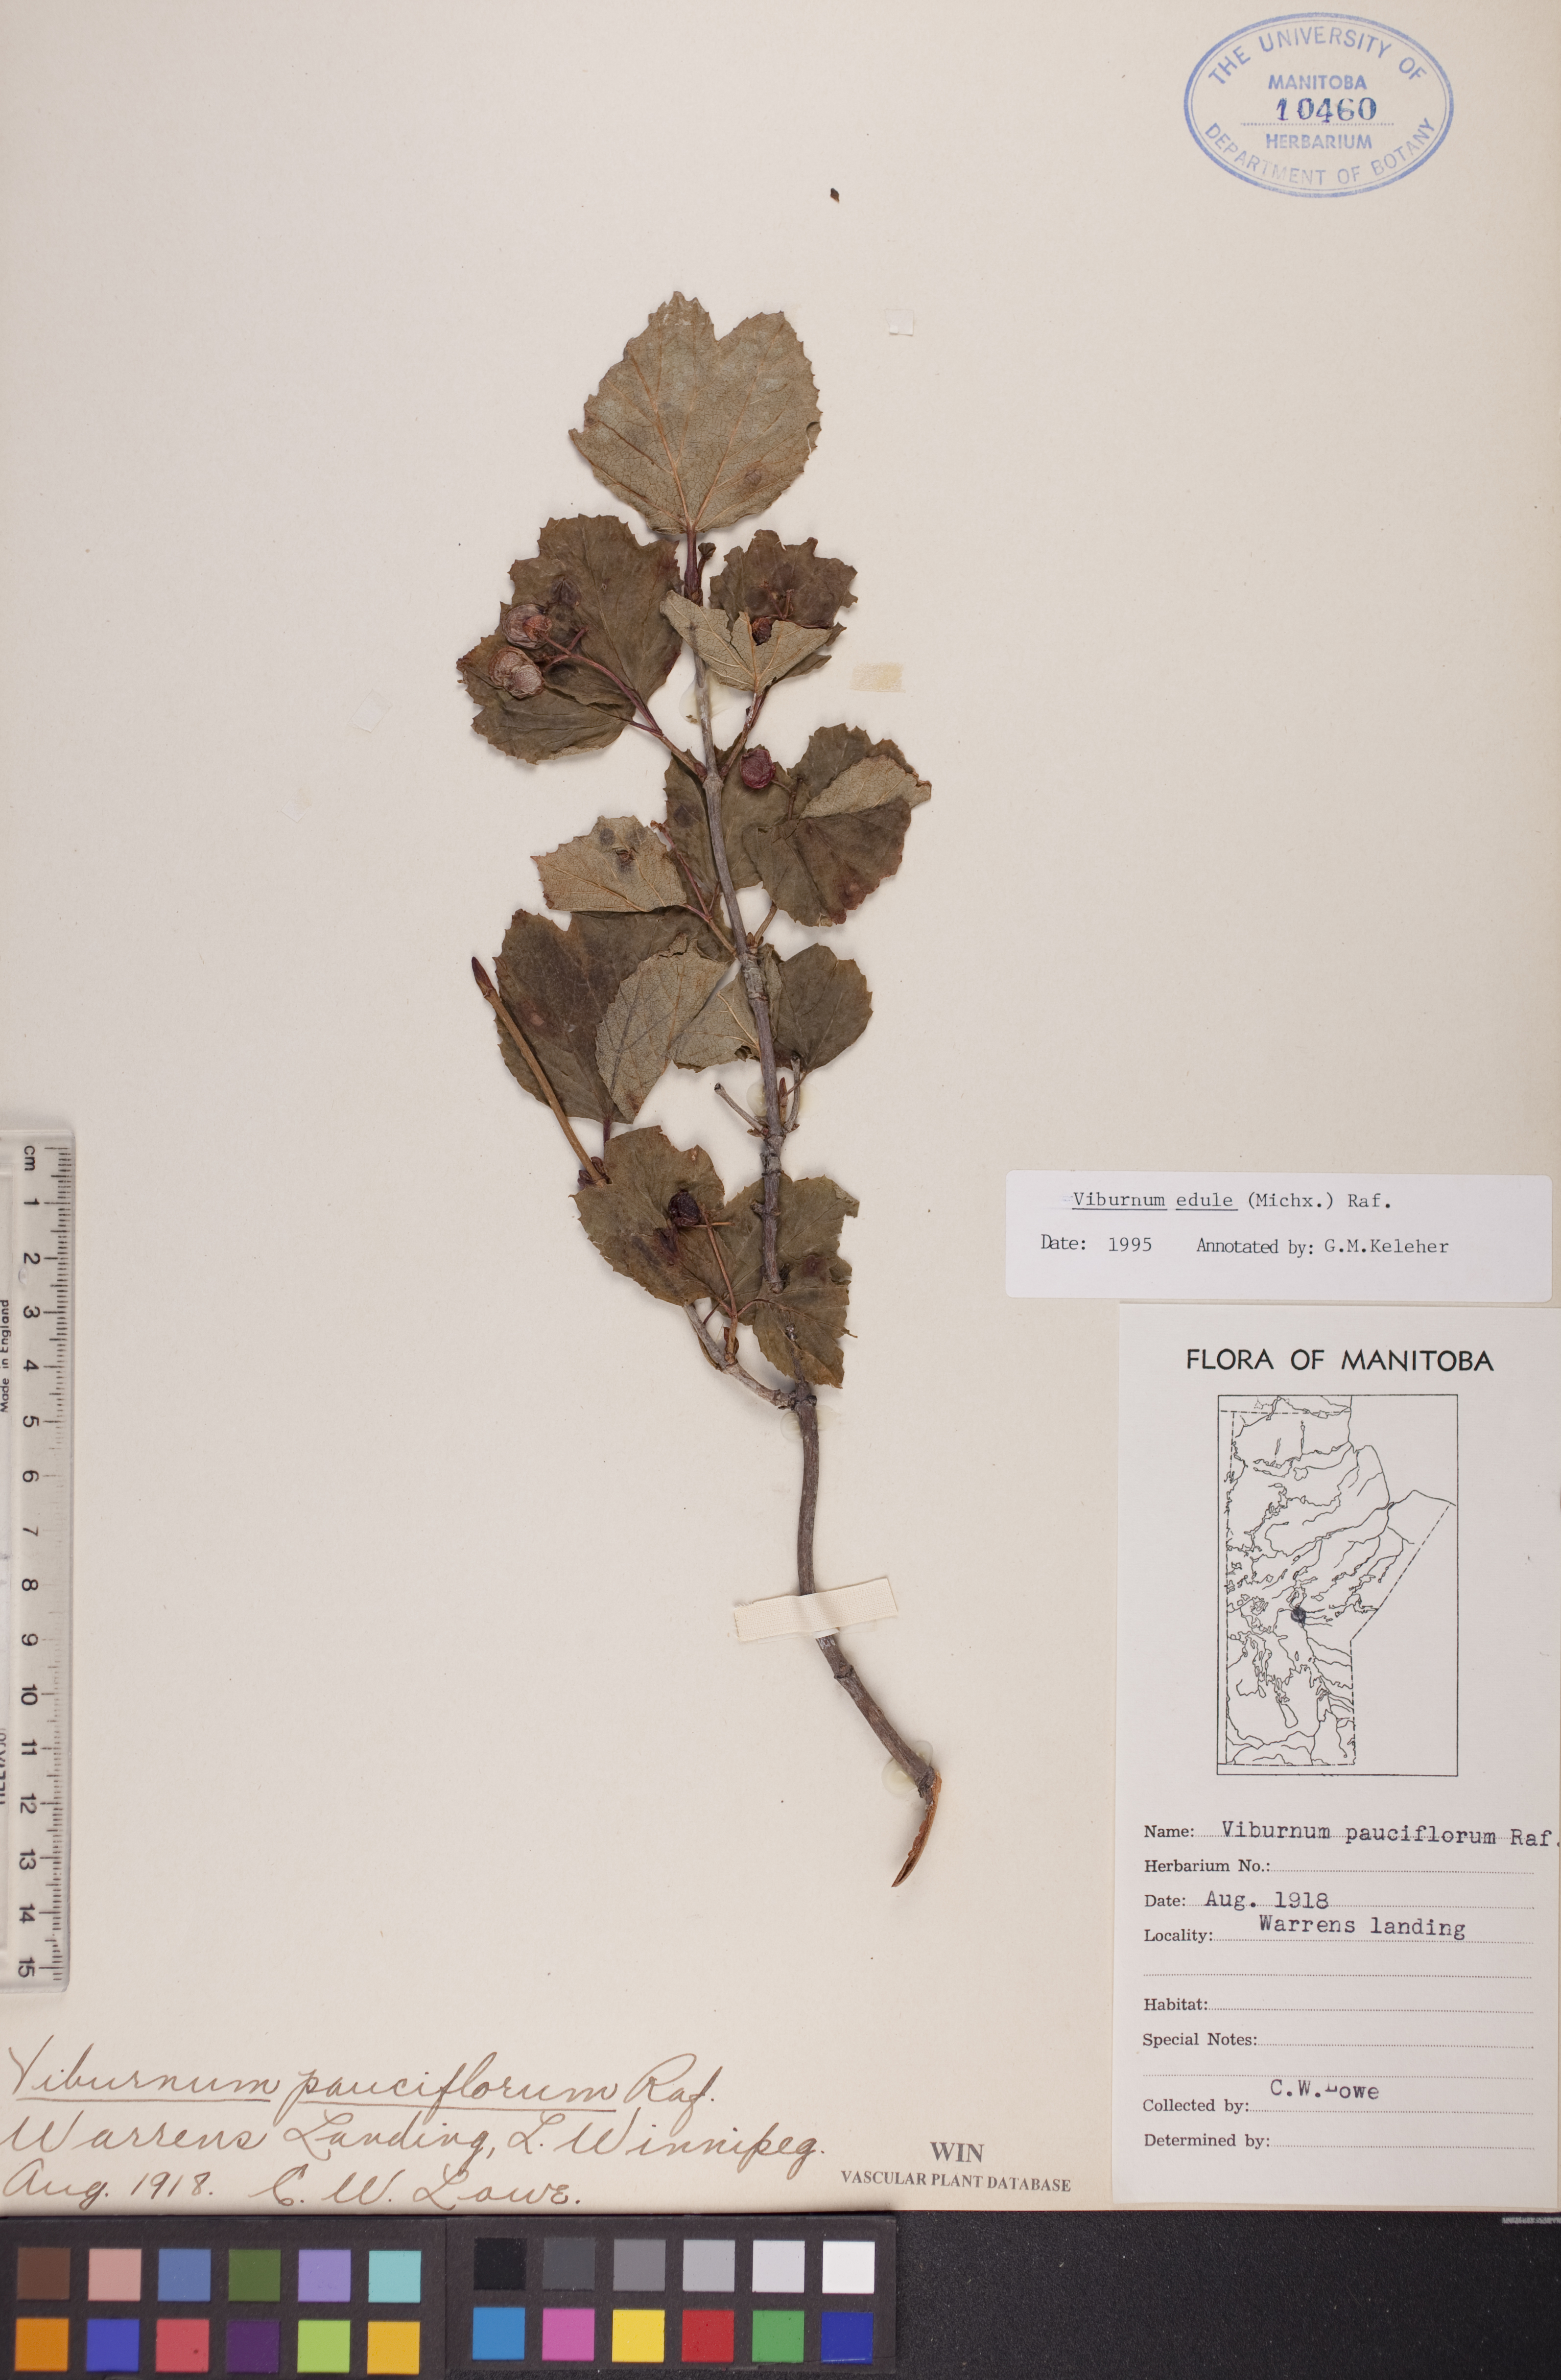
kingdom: Plantae
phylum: Tracheophyta
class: Magnoliopsida
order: Dipsacales
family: Viburnaceae
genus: Viburnum
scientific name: Viburnum edule
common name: Mooseberry
